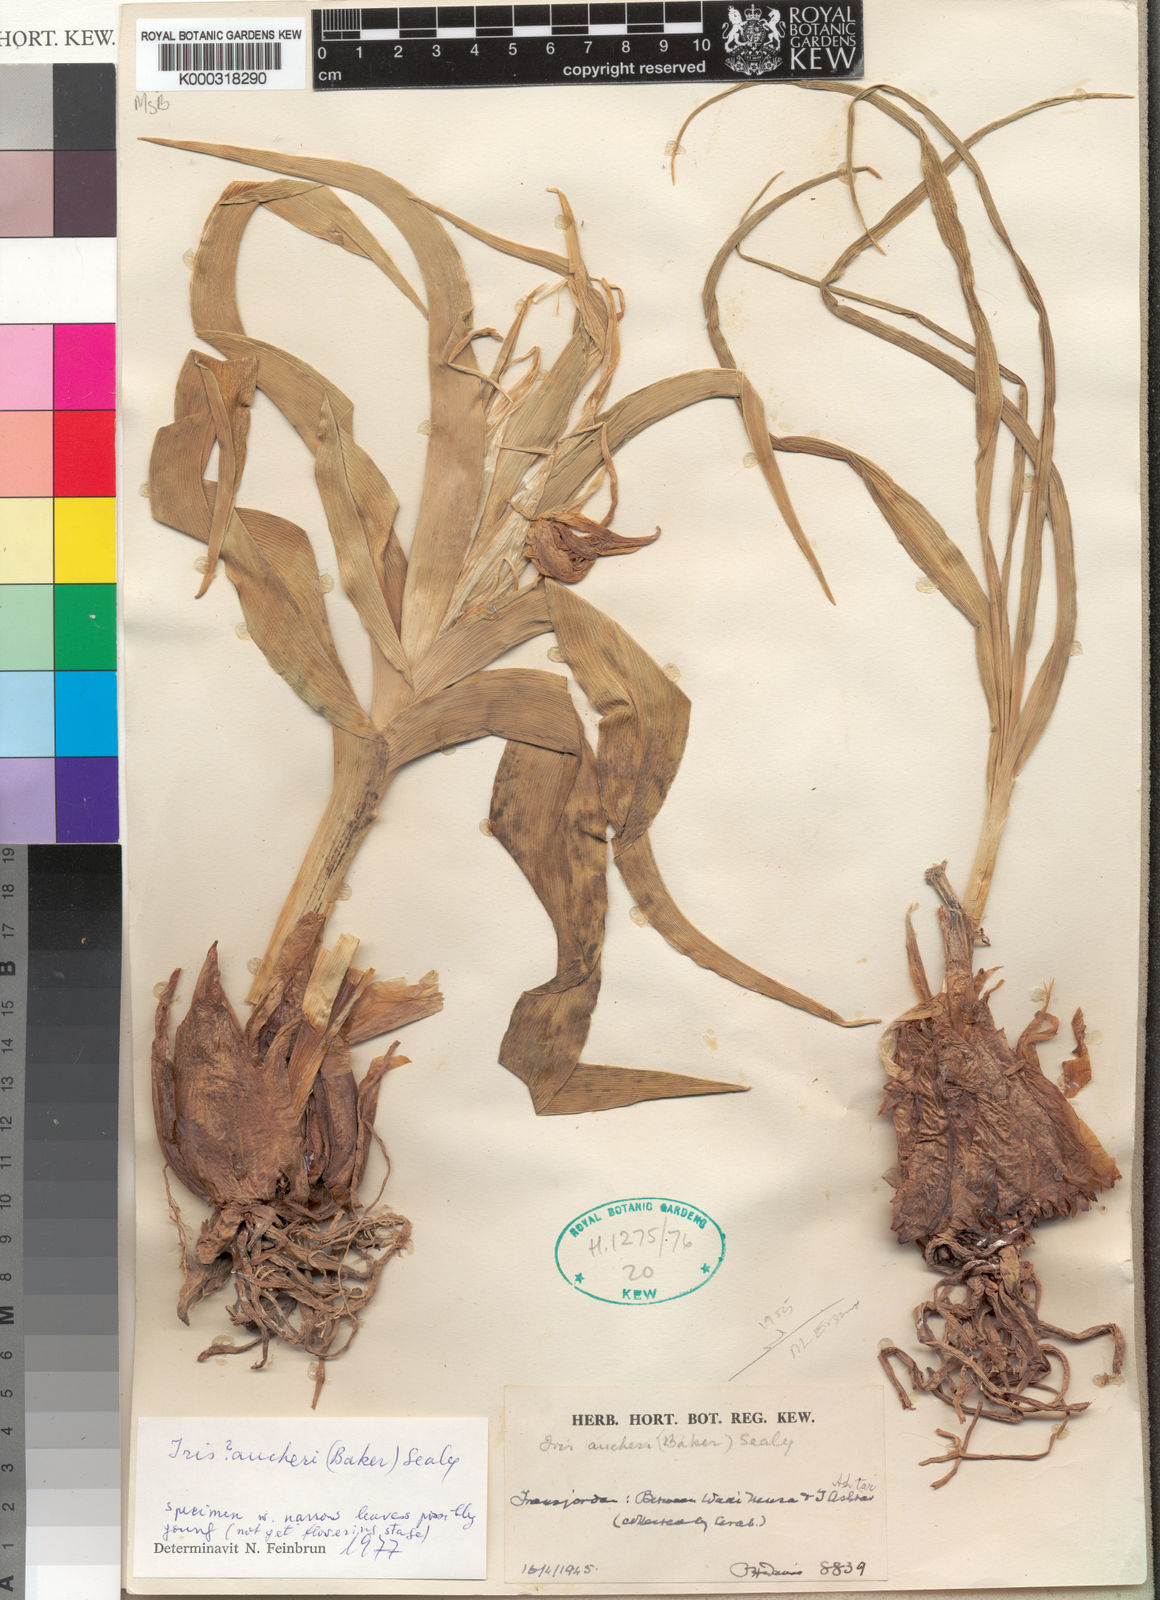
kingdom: Plantae
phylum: Tracheophyta
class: Liliopsida
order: Asparagales
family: Iridaceae
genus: Iris
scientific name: Iris aucheri
